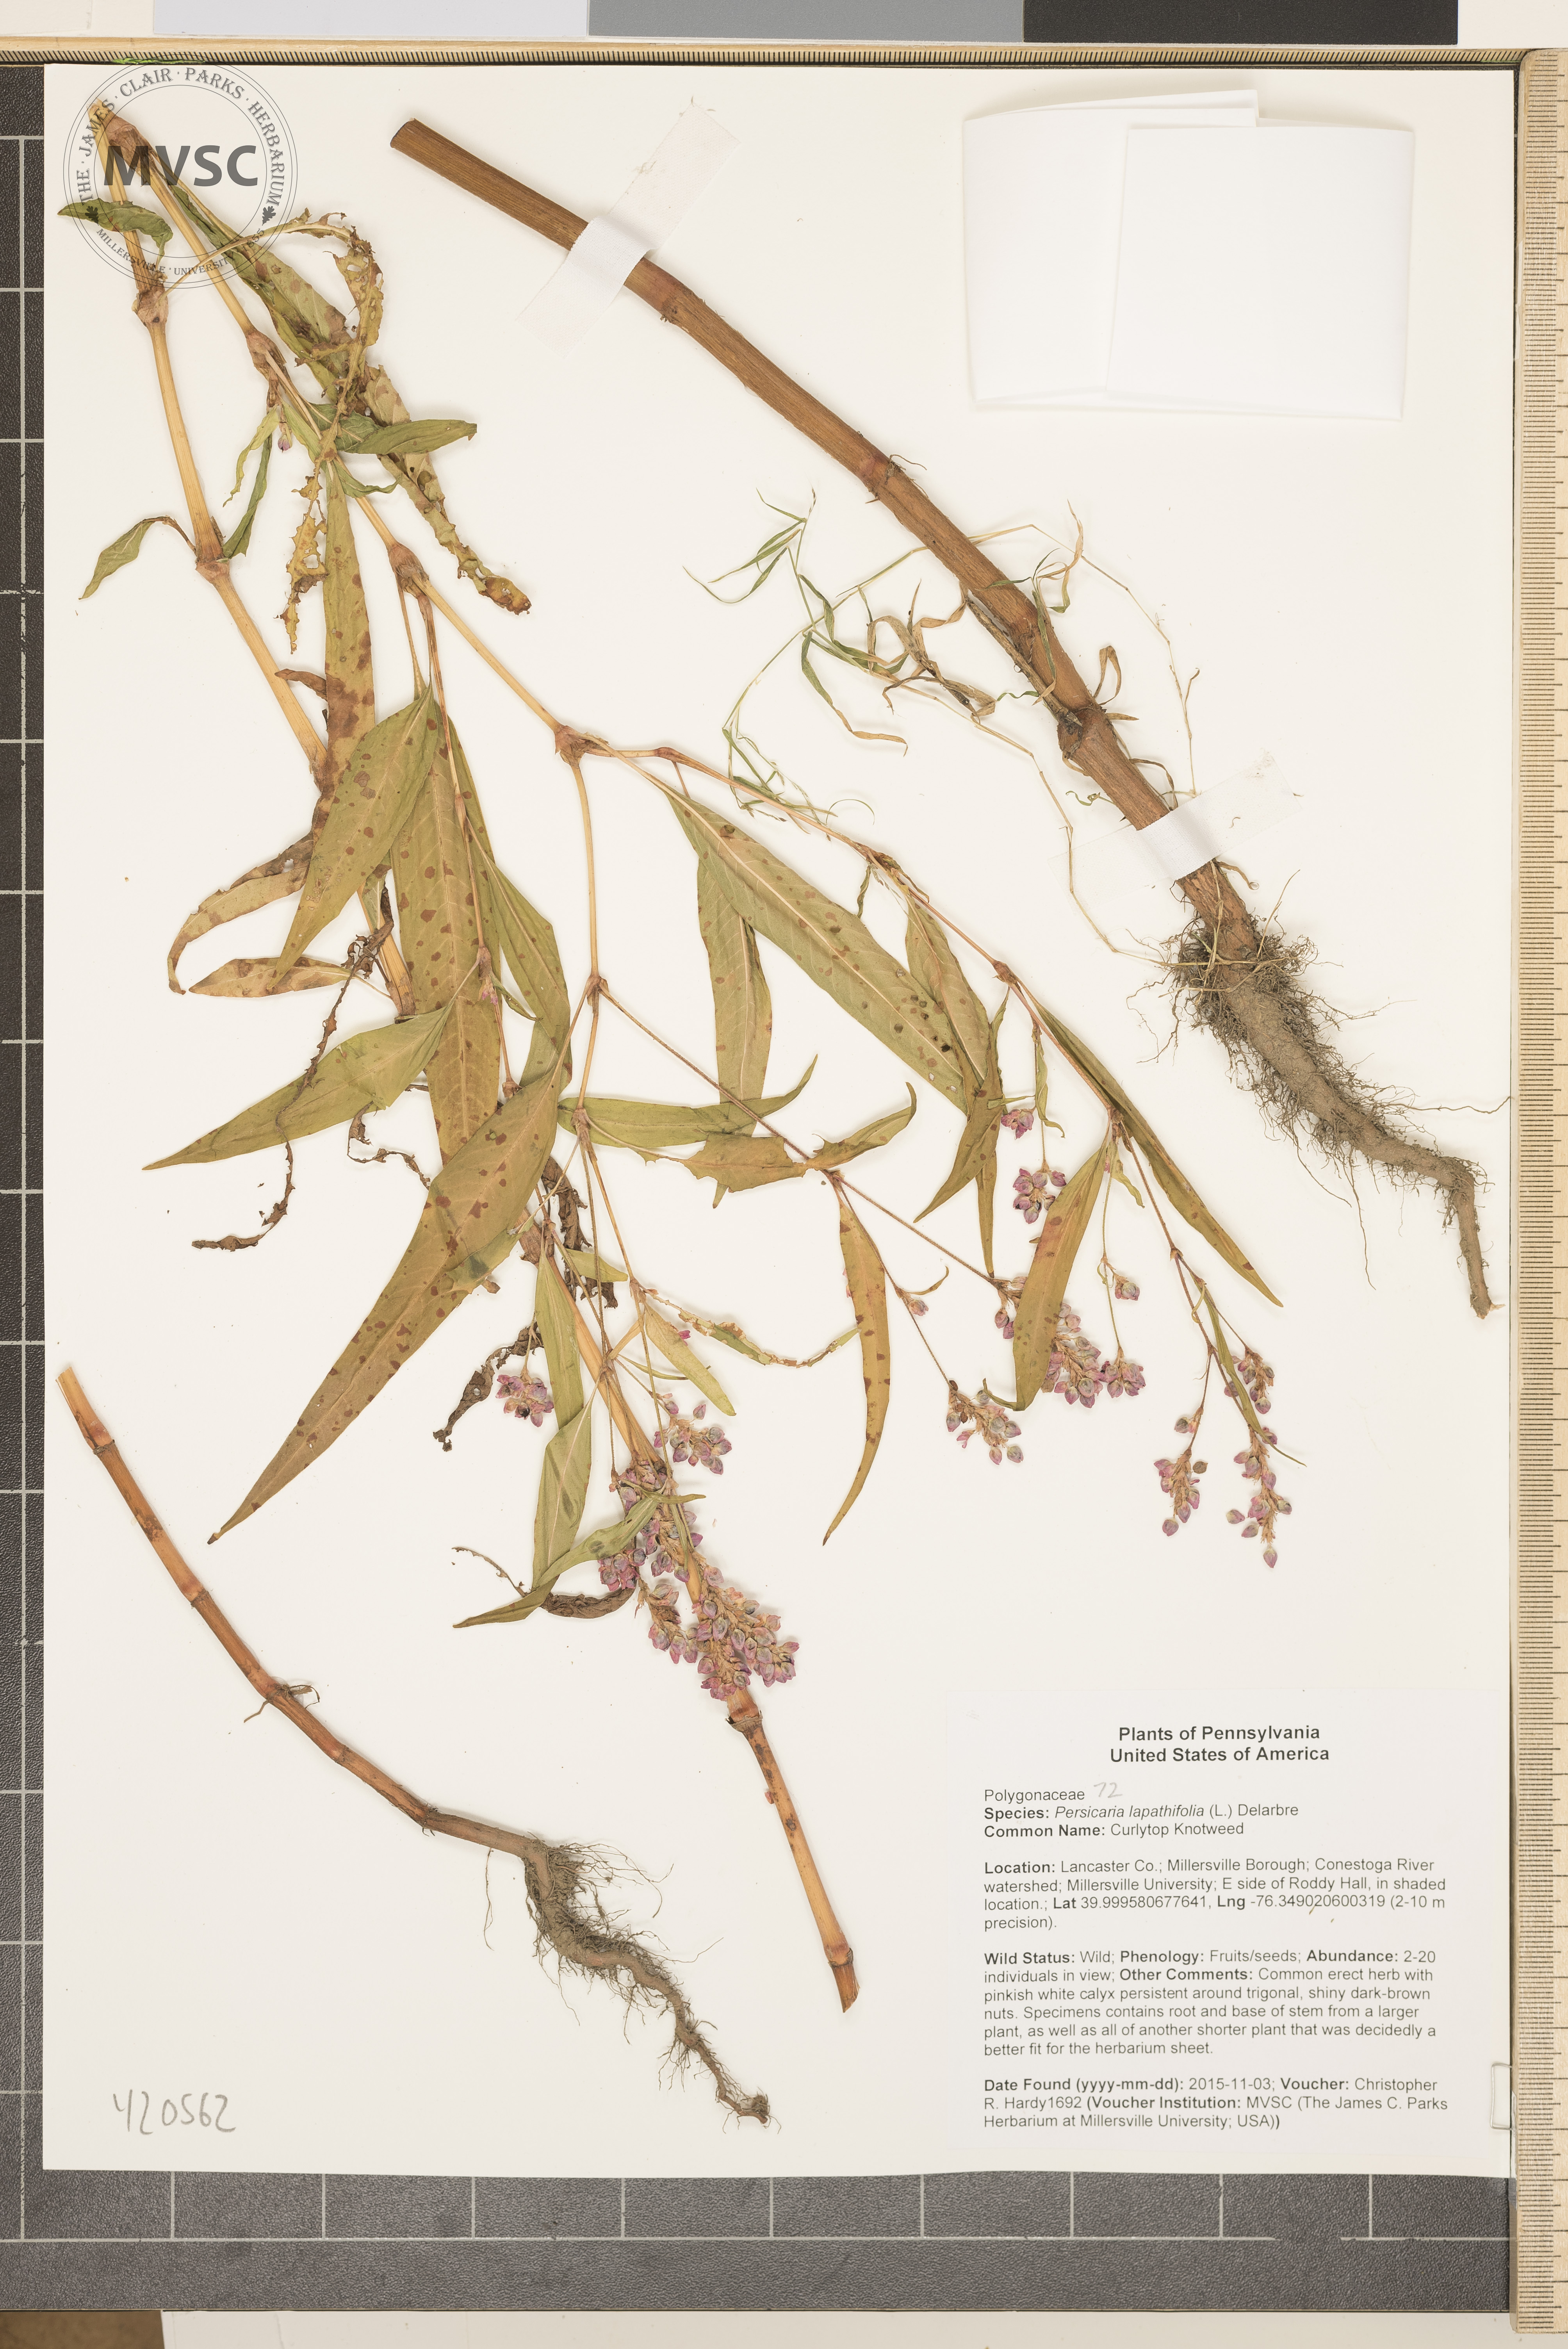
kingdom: Plantae
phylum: Tracheophyta
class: Magnoliopsida
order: Caryophyllales
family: Polygonaceae
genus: Persicaria
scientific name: Persicaria pensylvanica
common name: Curlytop Knotweed
